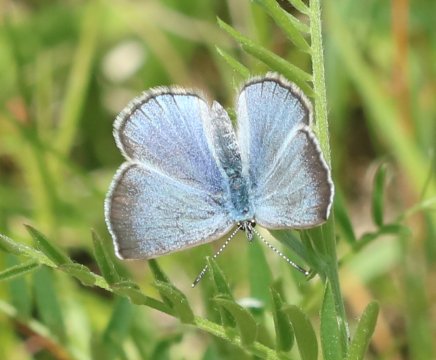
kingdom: Animalia
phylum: Arthropoda
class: Insecta
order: Lepidoptera
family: Lycaenidae
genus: Glaucopsyche
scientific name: Glaucopsyche lygdamus
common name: Silvery Blue
